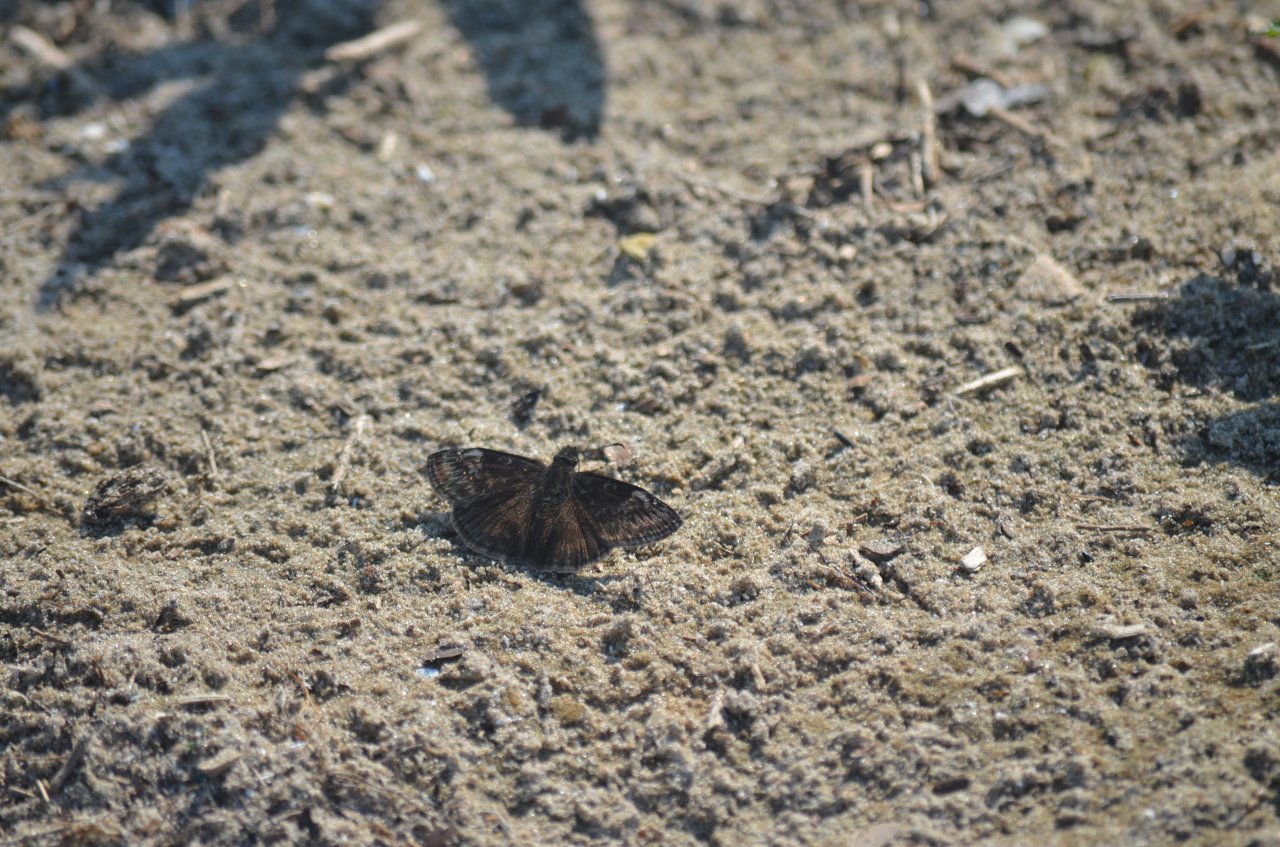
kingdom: Animalia
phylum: Arthropoda
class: Insecta
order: Lepidoptera
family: Hesperiidae
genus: Gesta
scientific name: Gesta
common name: Wild Indigo Duskywing
